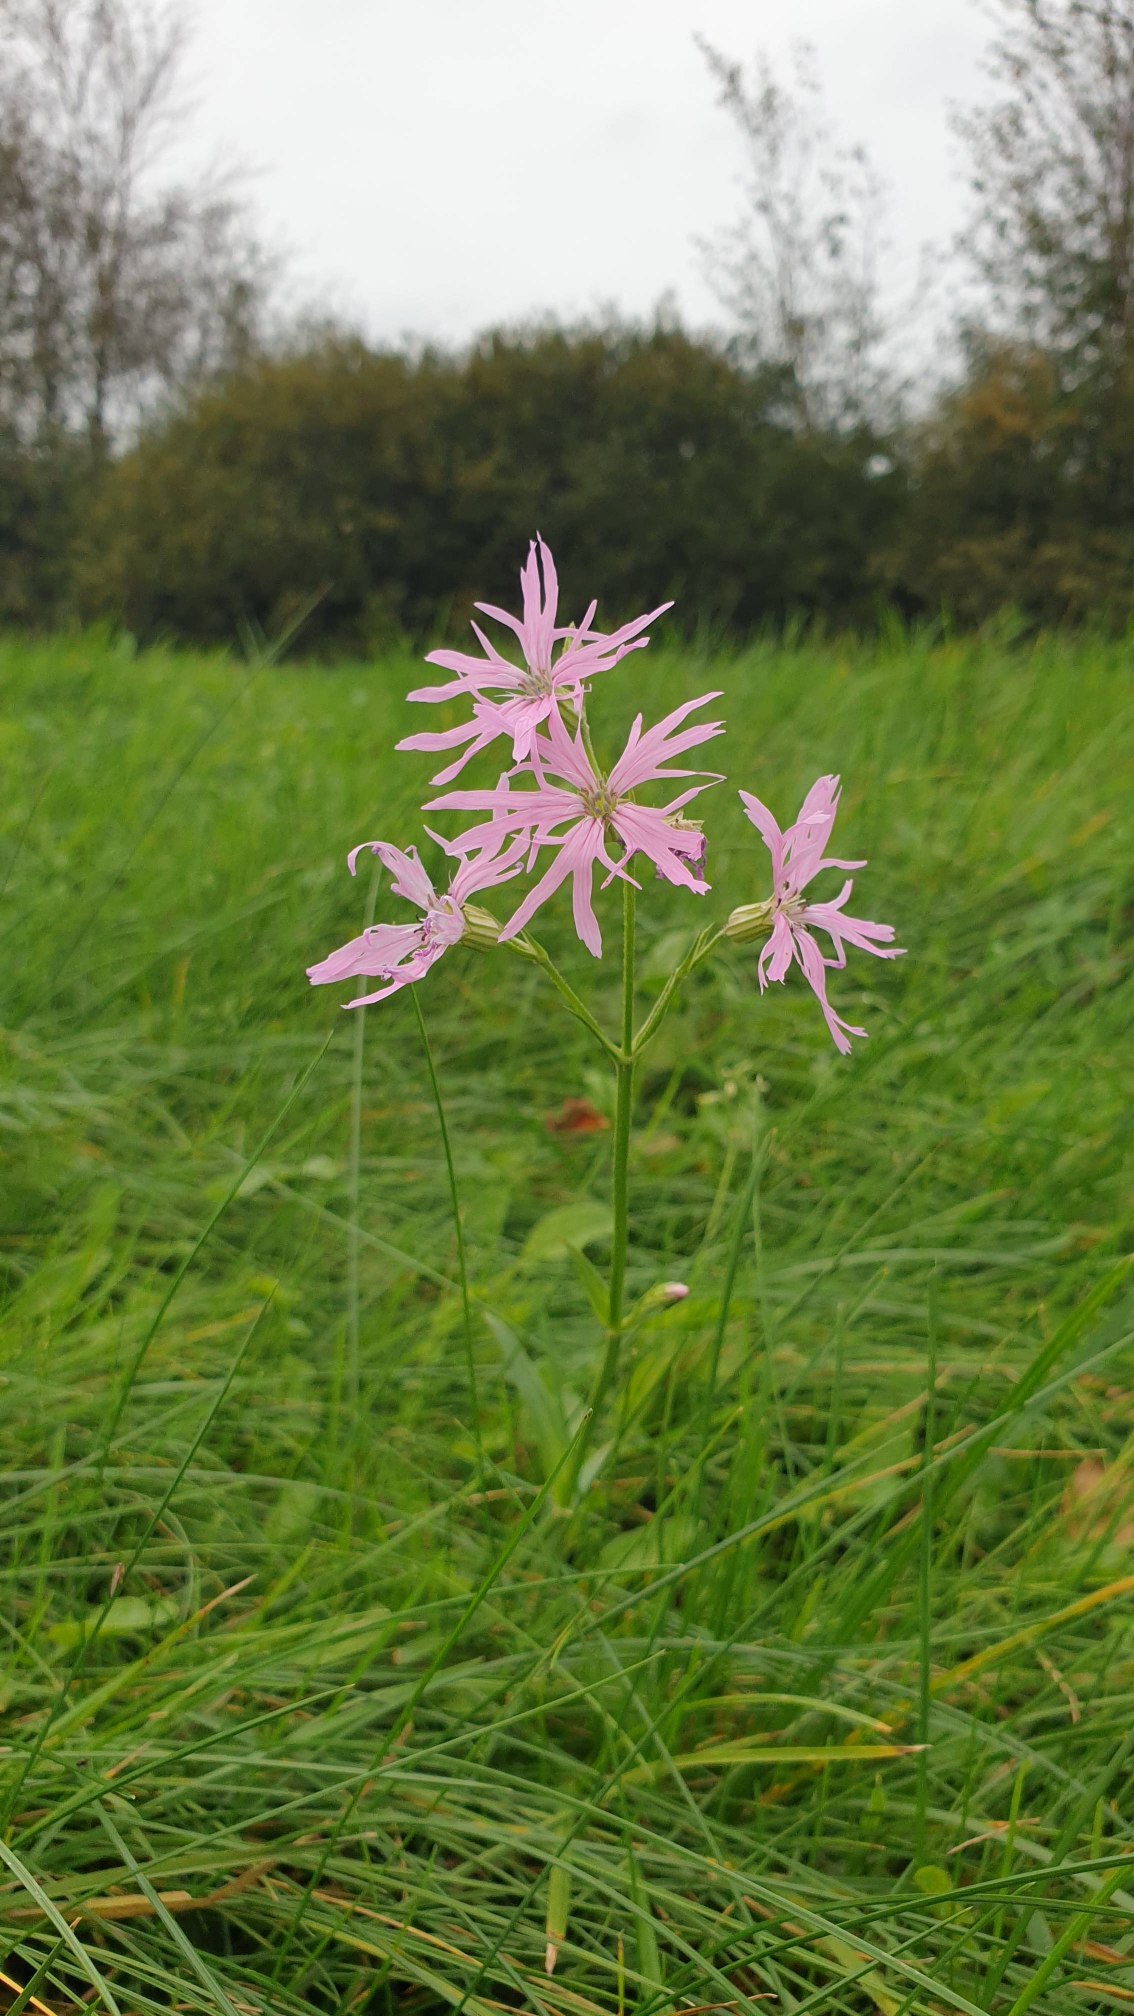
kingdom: Plantae
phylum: Tracheophyta
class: Magnoliopsida
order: Caryophyllales
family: Caryophyllaceae
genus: Silene
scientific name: Silene flos-cuculi
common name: Trævlekrone
